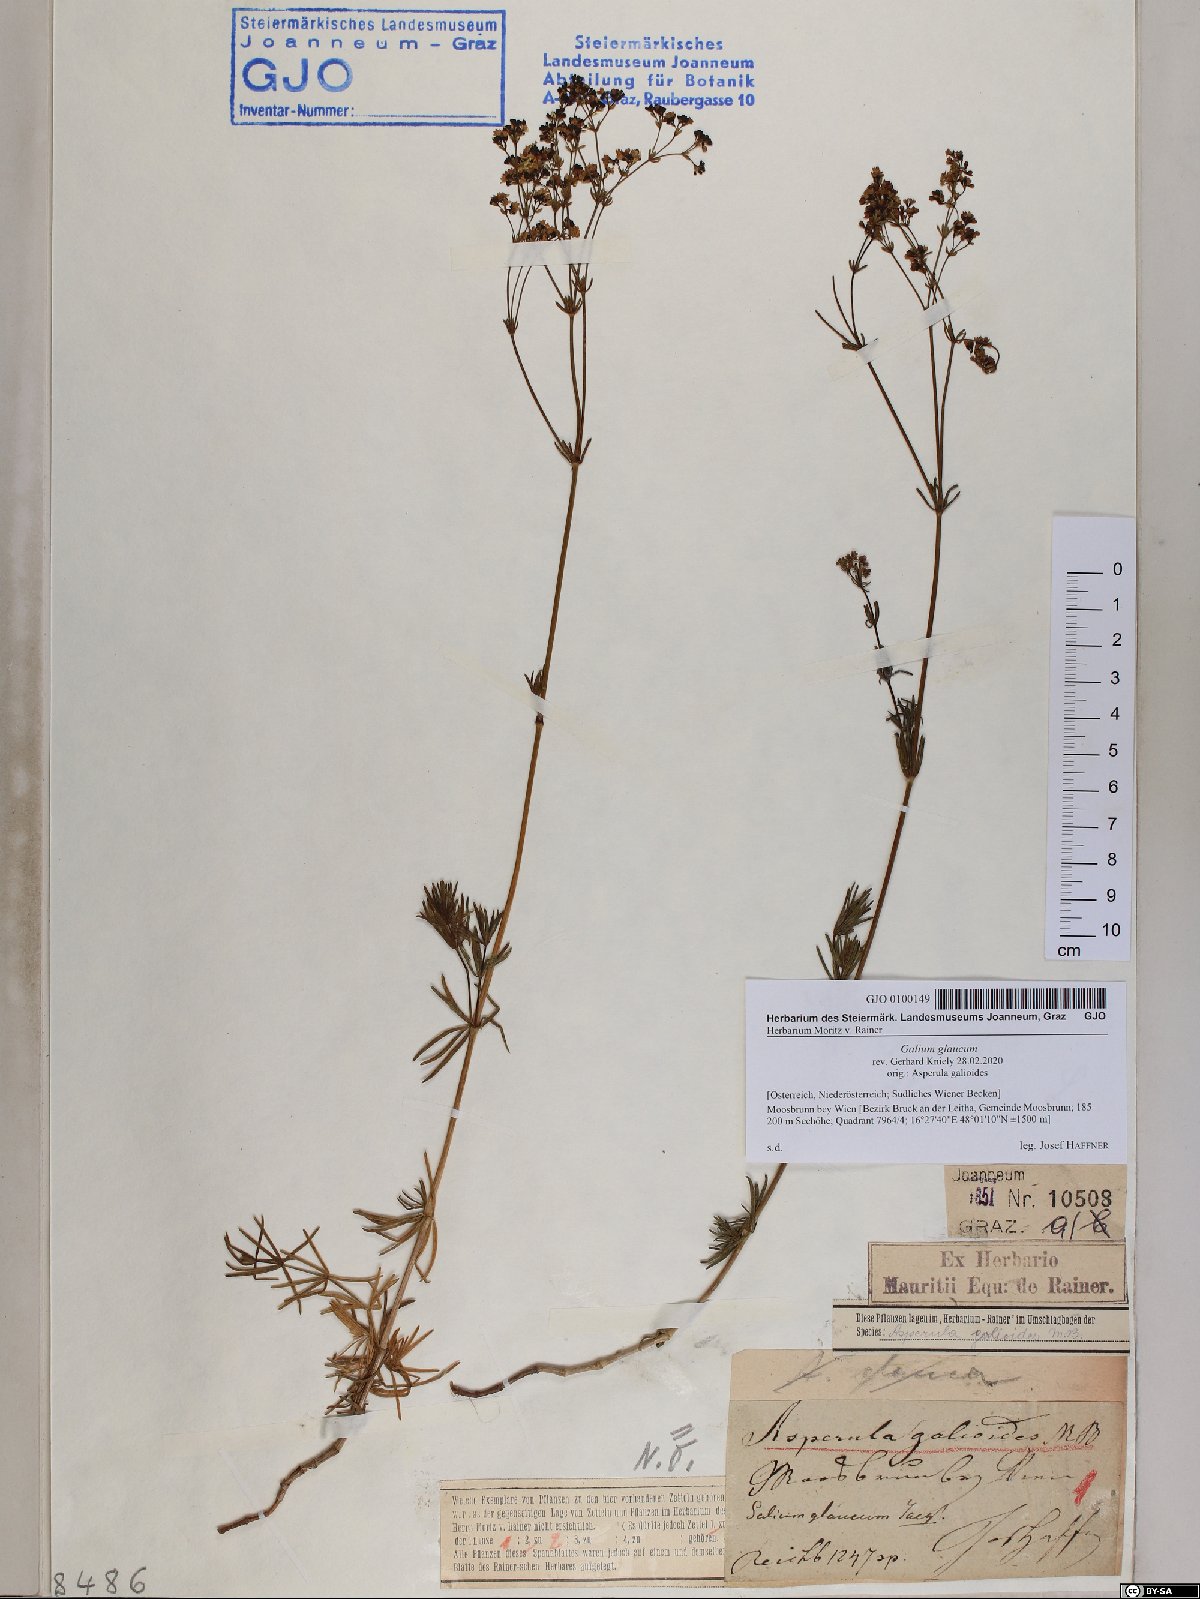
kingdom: Plantae
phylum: Tracheophyta
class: Magnoliopsida
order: Gentianales
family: Rubiaceae
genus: Galium
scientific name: Galium glaucum
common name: Waxy bedstraw
